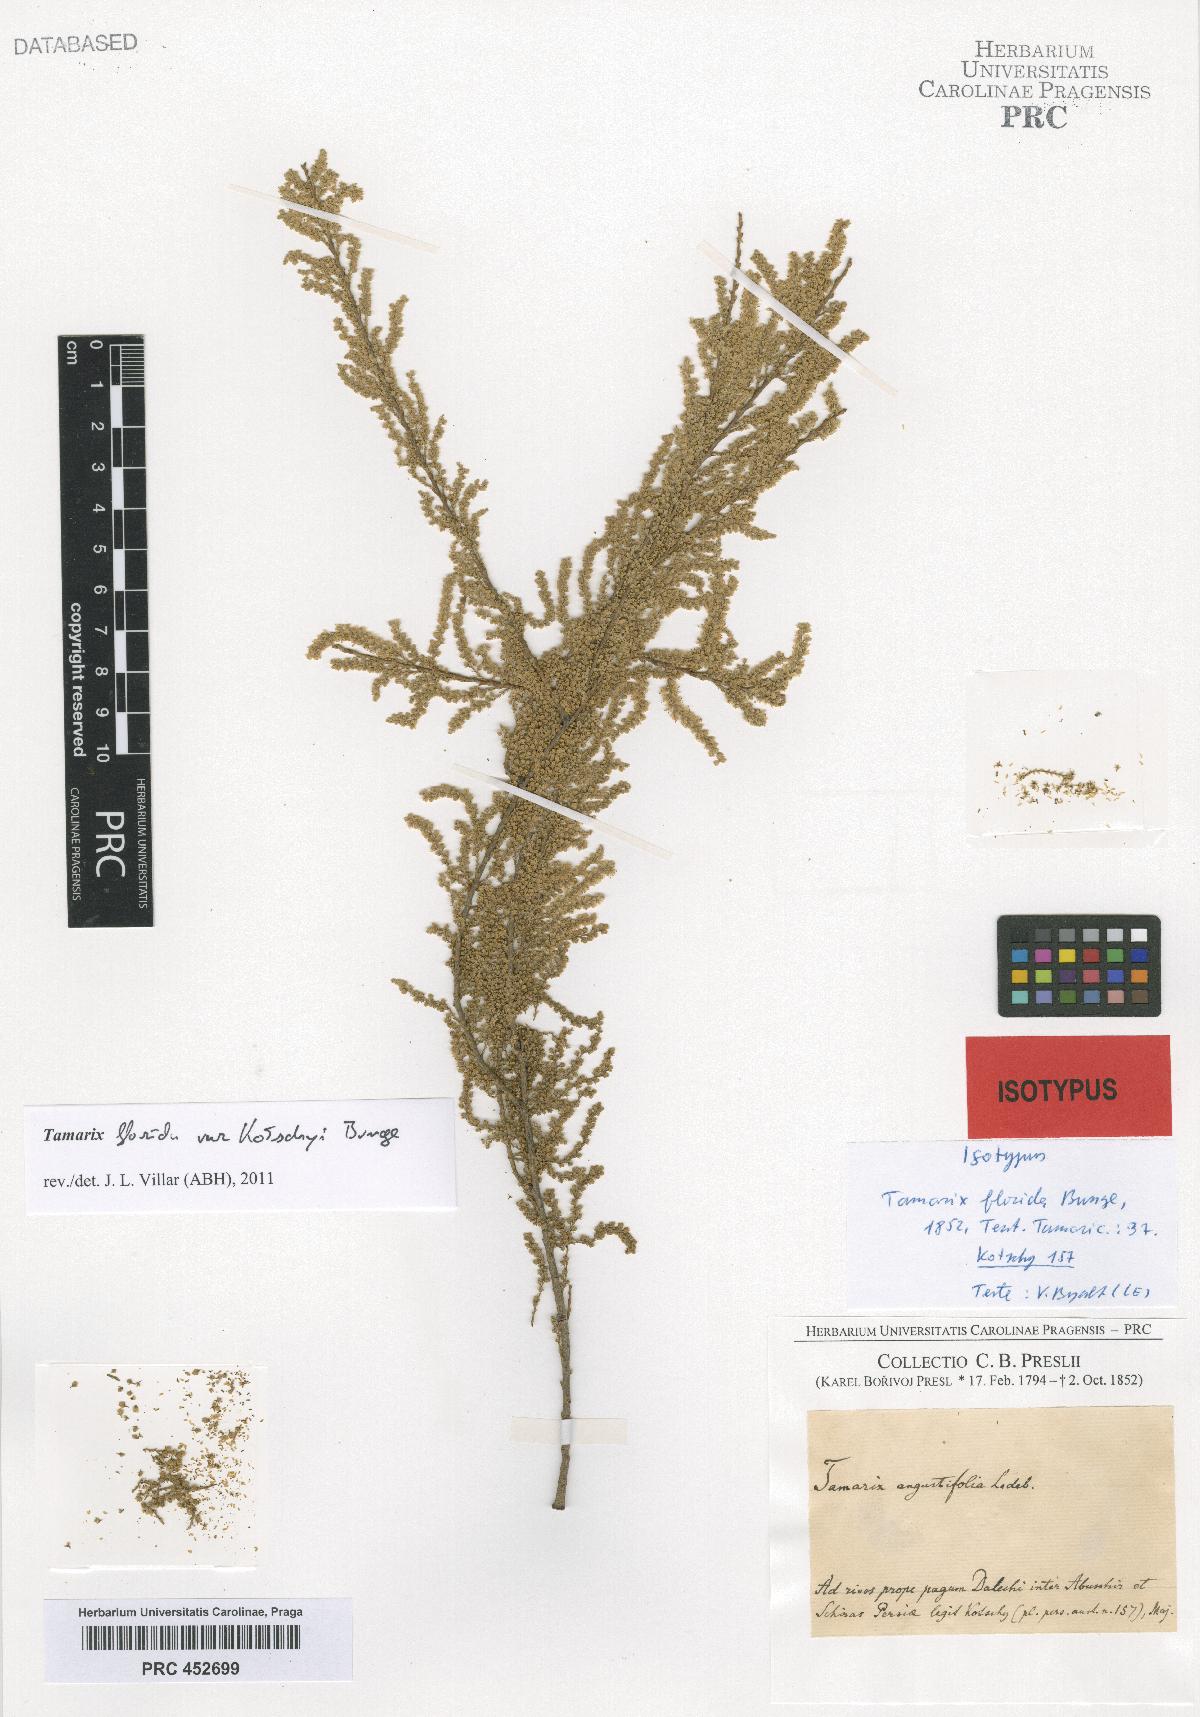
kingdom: Plantae
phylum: Tracheophyta
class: Magnoliopsida
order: Caryophyllales
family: Tamaricaceae
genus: Tamarix
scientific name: Tamarix florida
